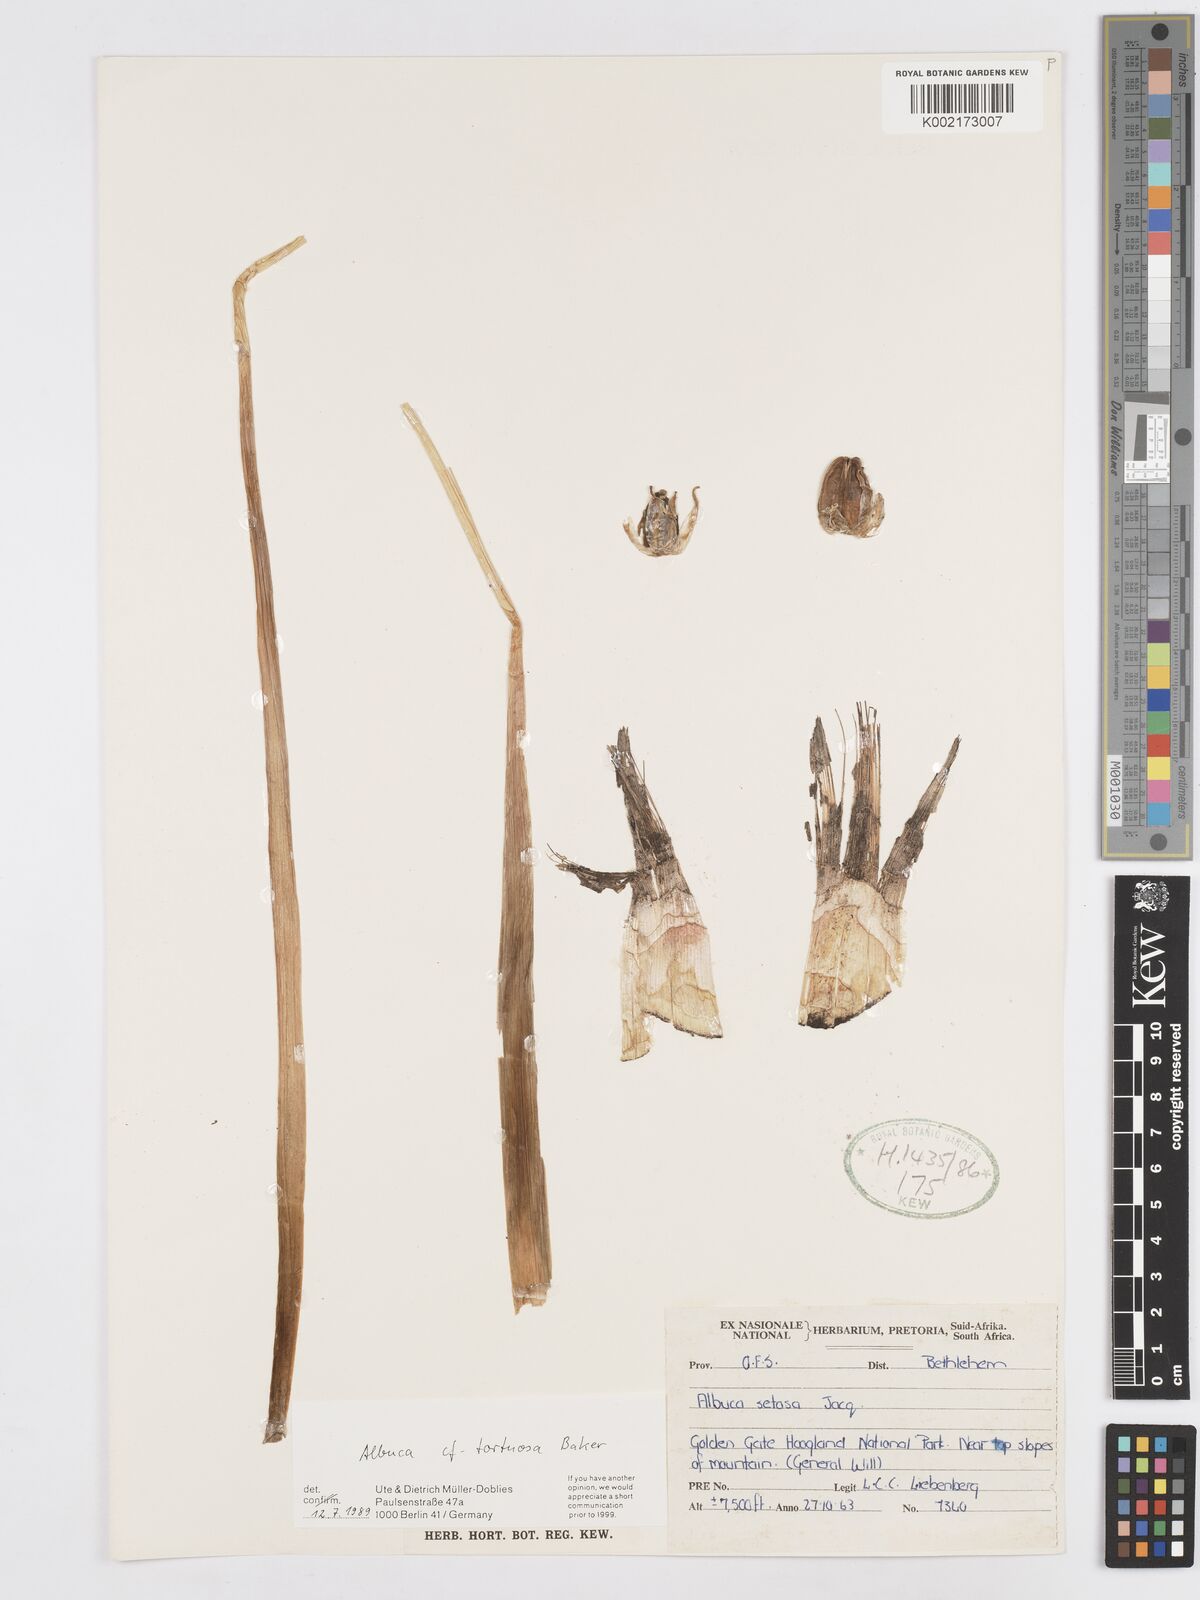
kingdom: Plantae
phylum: Tracheophyta
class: Liliopsida
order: Asparagales
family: Asparagaceae
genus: Albuca
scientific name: Albuca tortuosa
